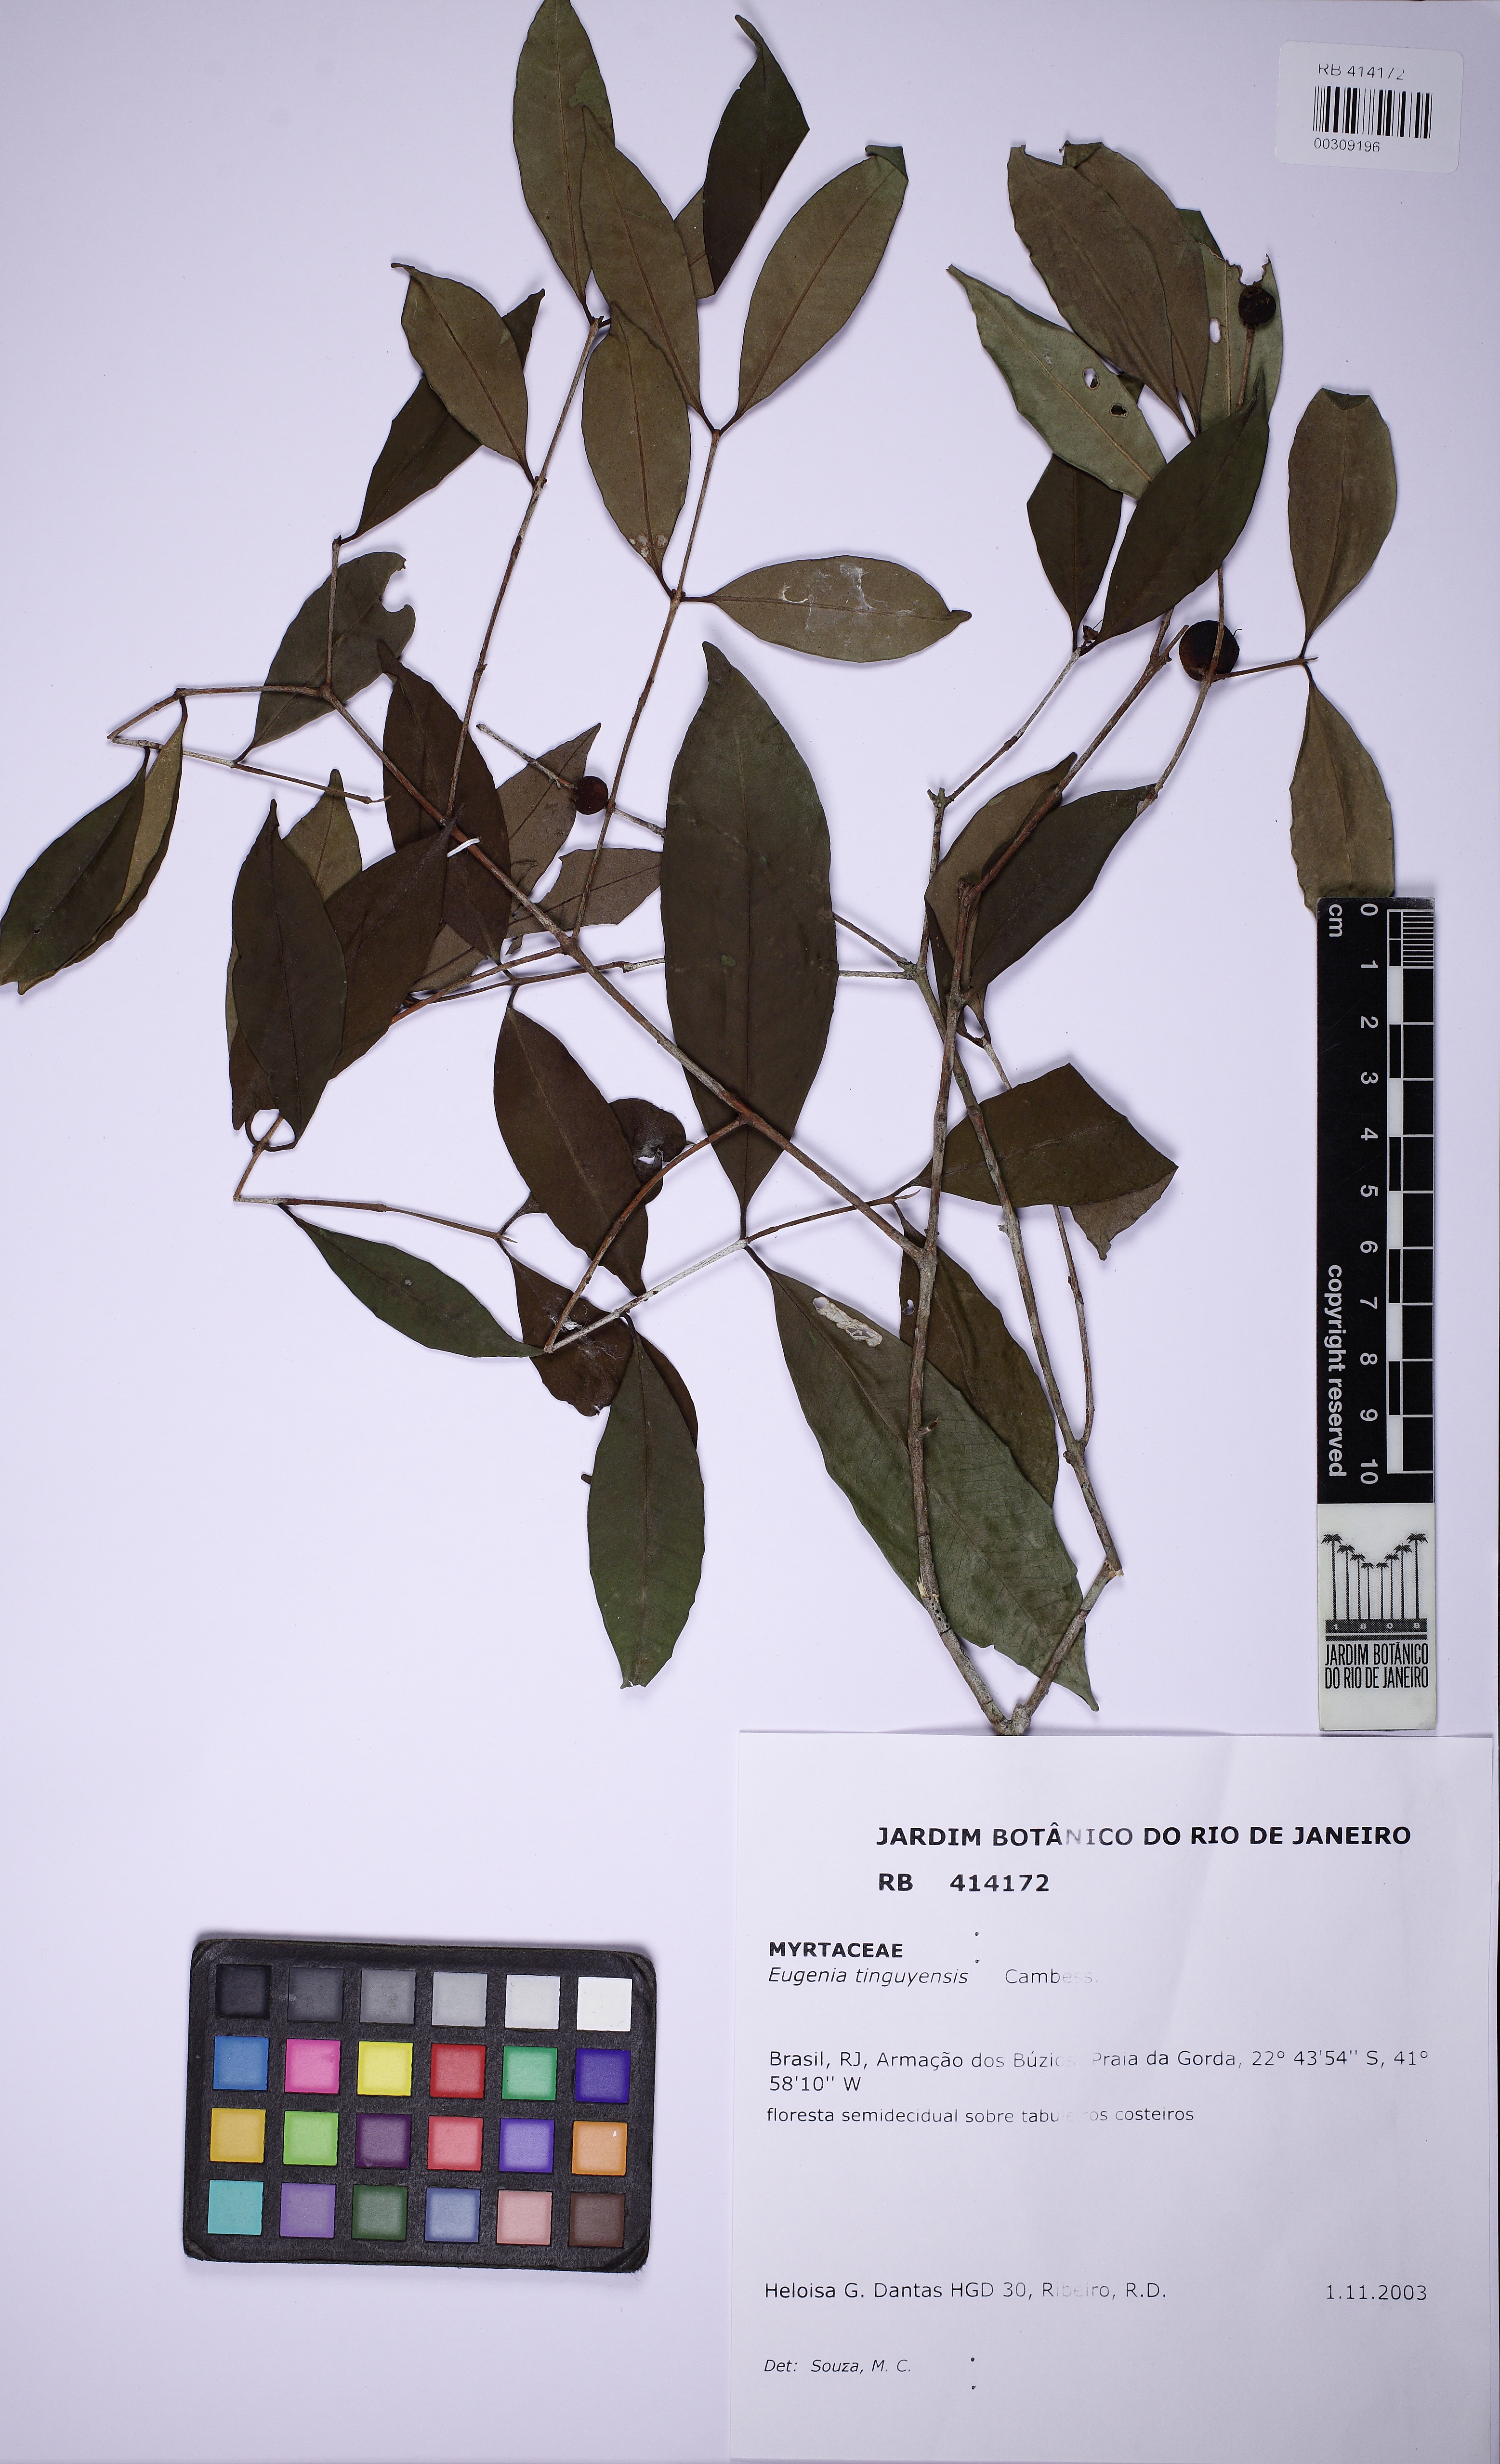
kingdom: Plantae
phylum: Tracheophyta
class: Magnoliopsida
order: Myrtales
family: Myrtaceae
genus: Eugenia
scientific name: Eugenia pisiformis
